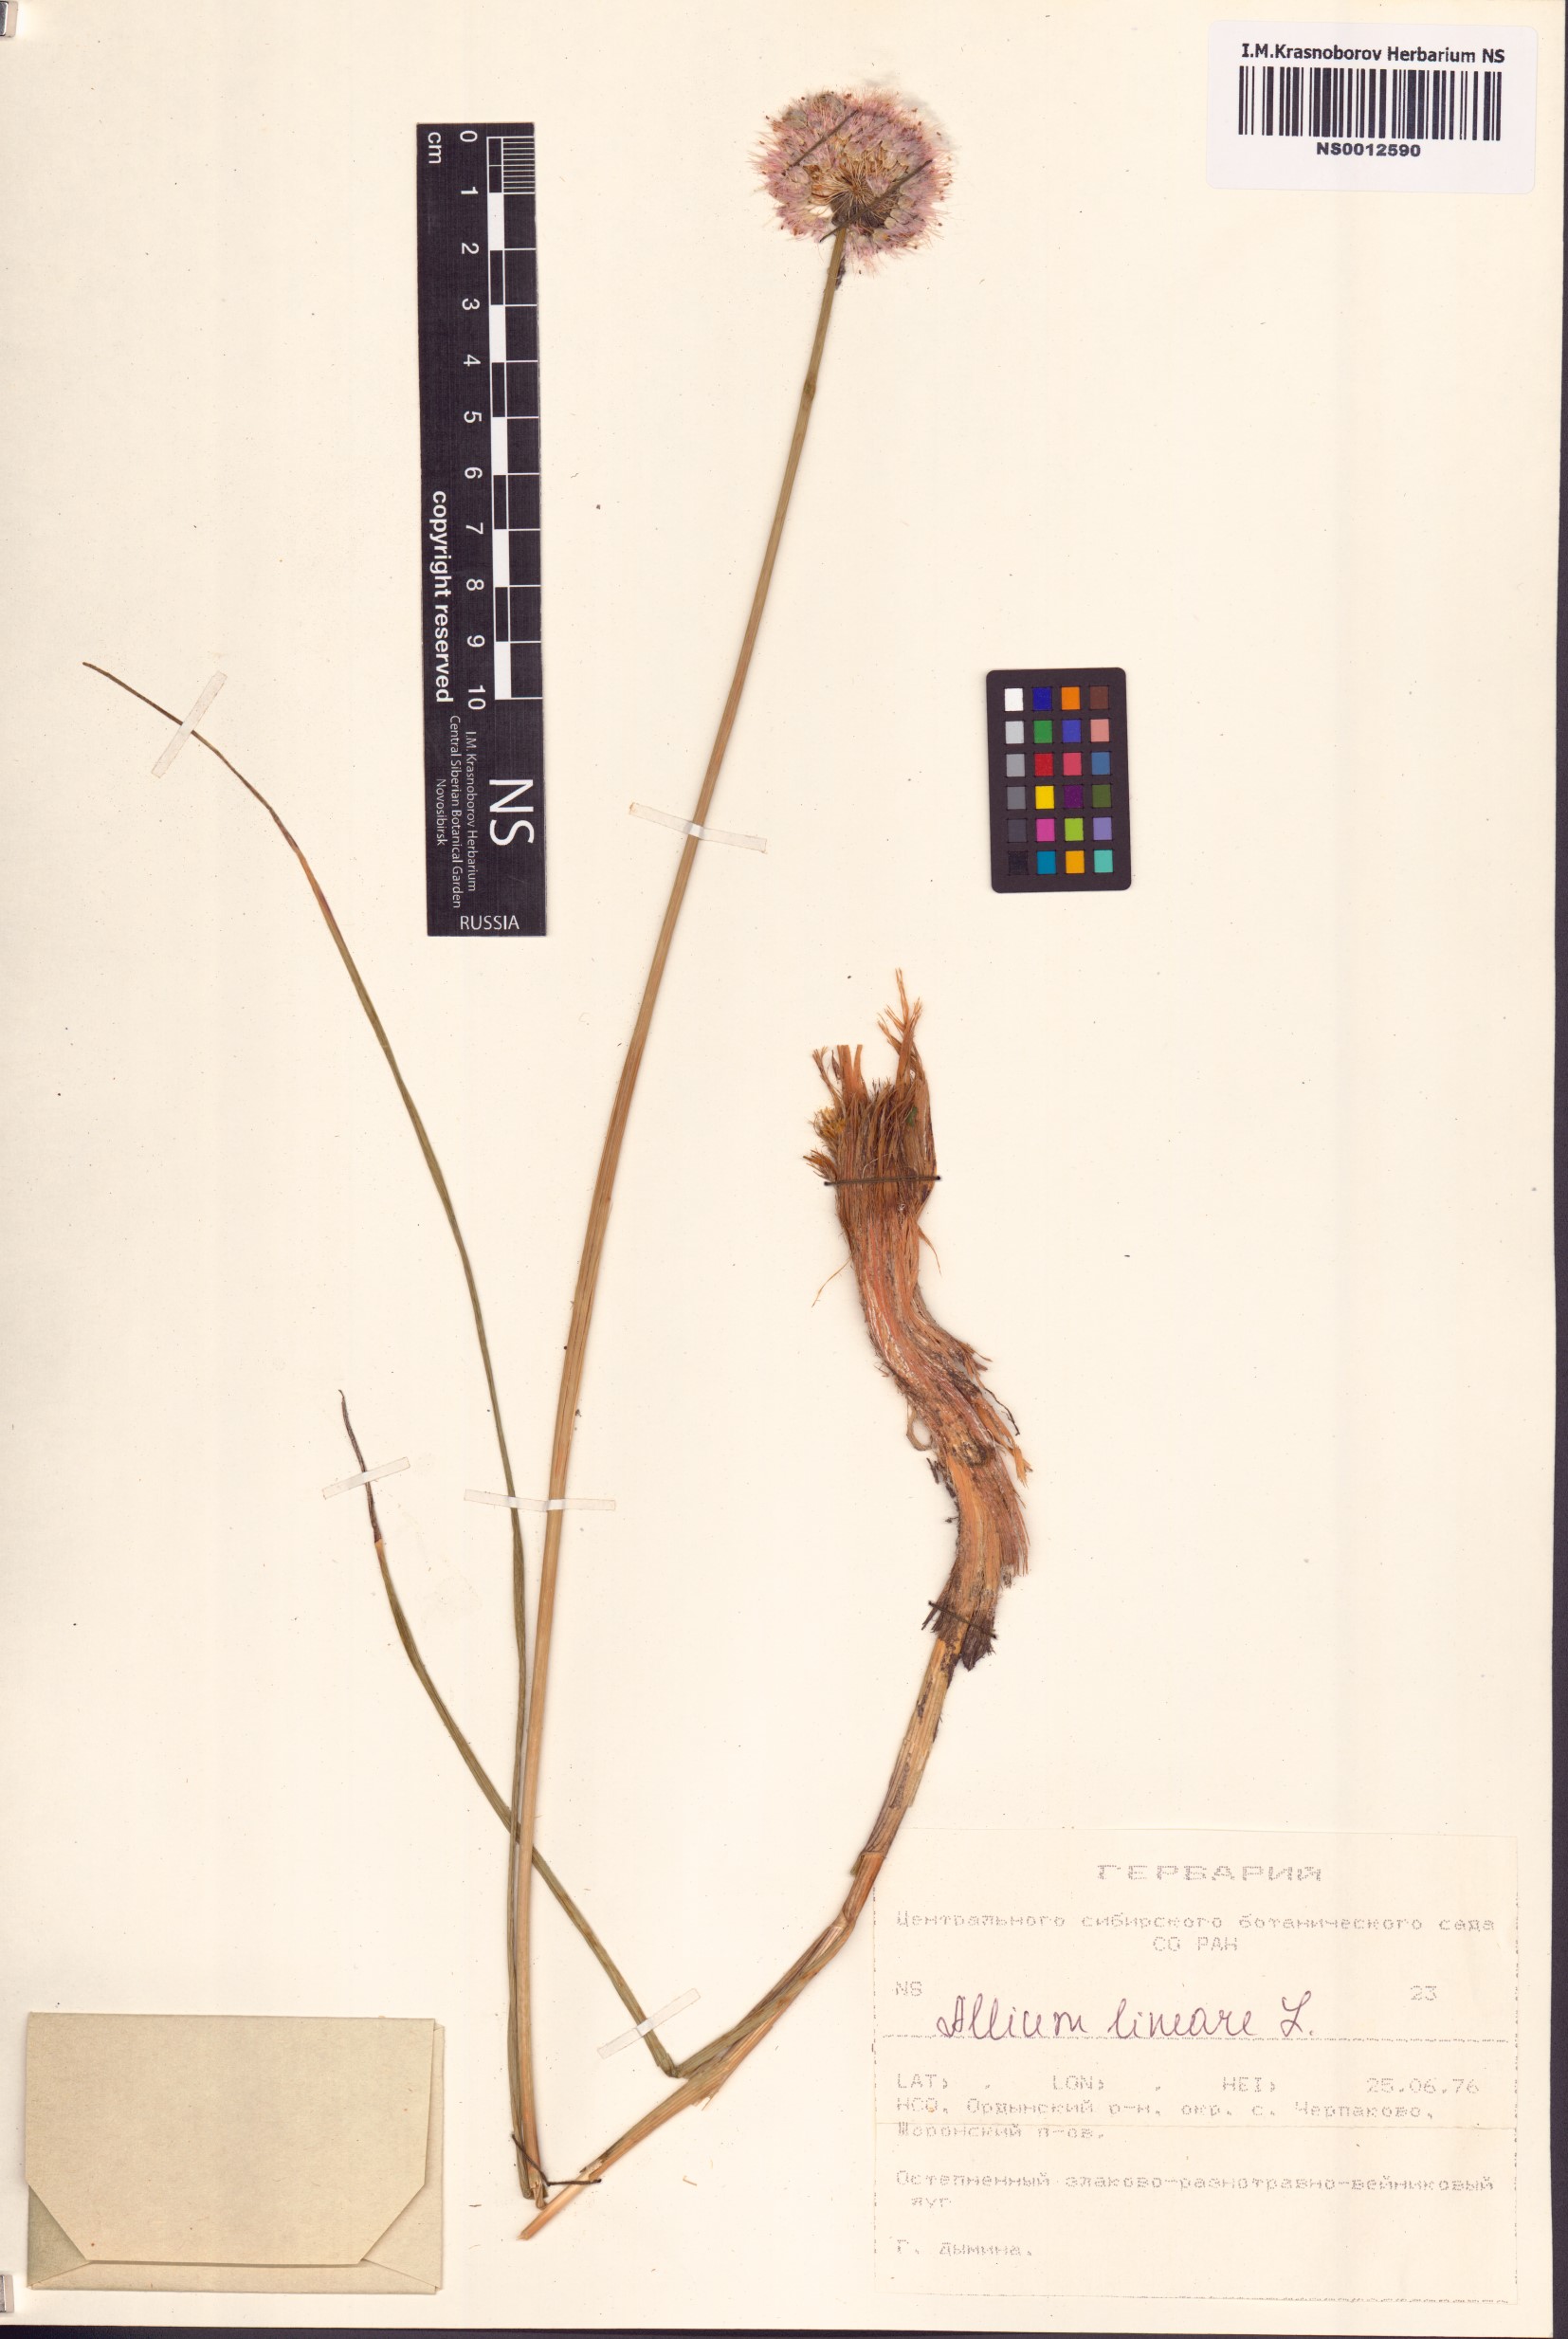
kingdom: Plantae
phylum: Tracheophyta
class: Liliopsida
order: Asparagales
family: Amaryllidaceae
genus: Allium
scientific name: Allium lineare
